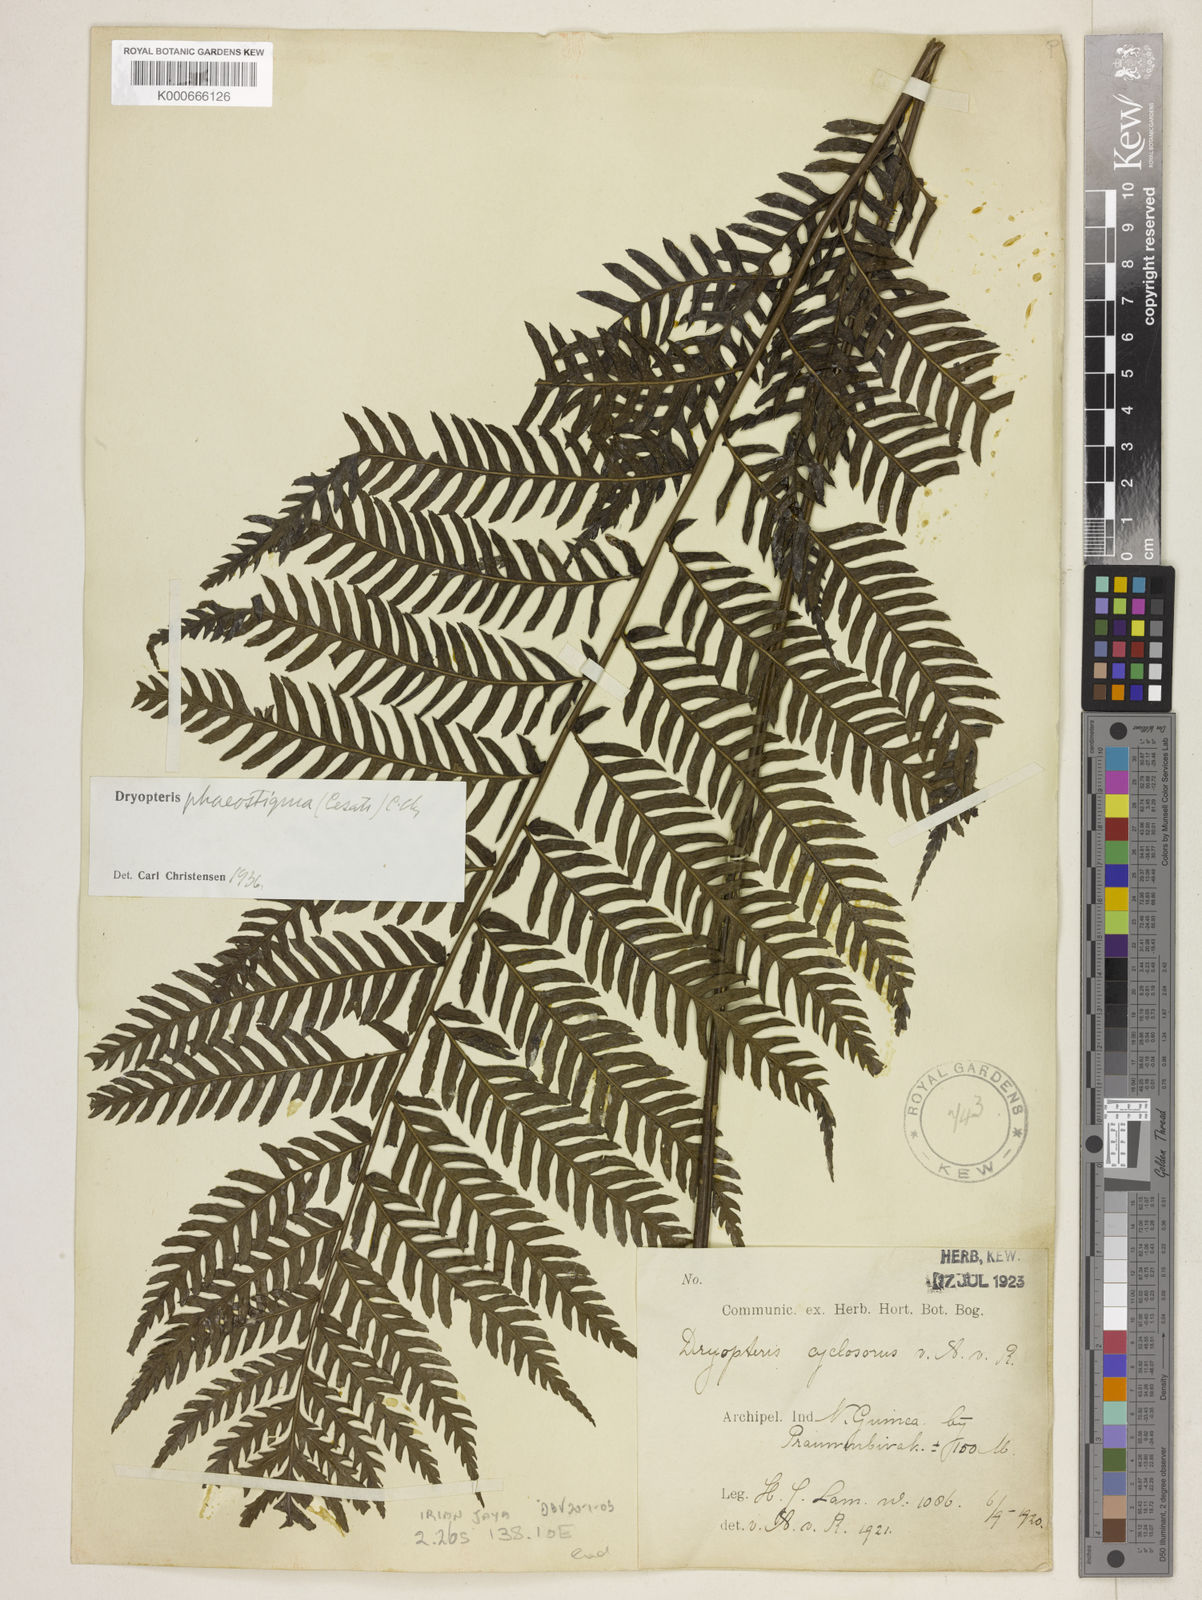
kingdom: Plantae
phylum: Tracheophyta
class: Polypodiopsida
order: Polypodiales
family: Lomariopsidaceae
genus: Dryopolystichum
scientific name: Dryopolystichum phaeostigma
